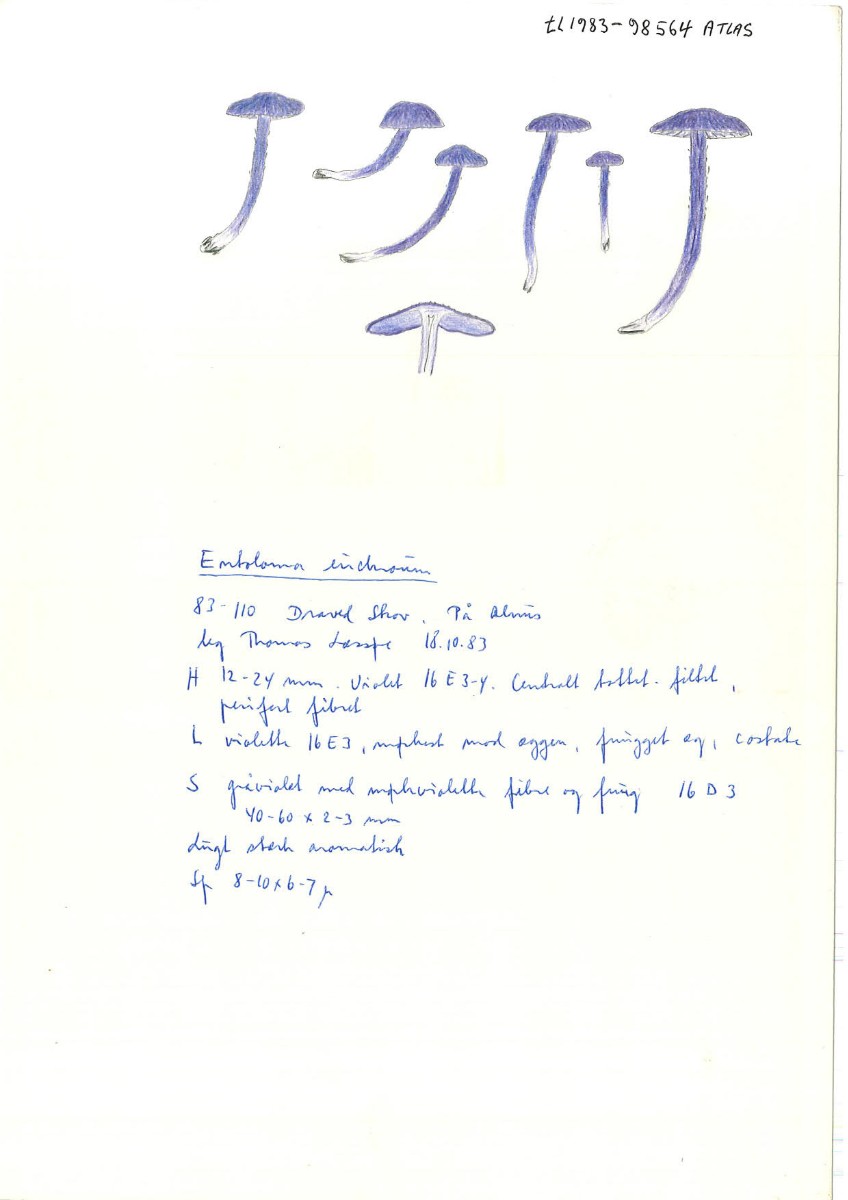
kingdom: Fungi
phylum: Basidiomycota
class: Agaricomycetes
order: Agaricales
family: Entolomataceae
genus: Entoloma
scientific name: Entoloma euchroum
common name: smuk rødblad
